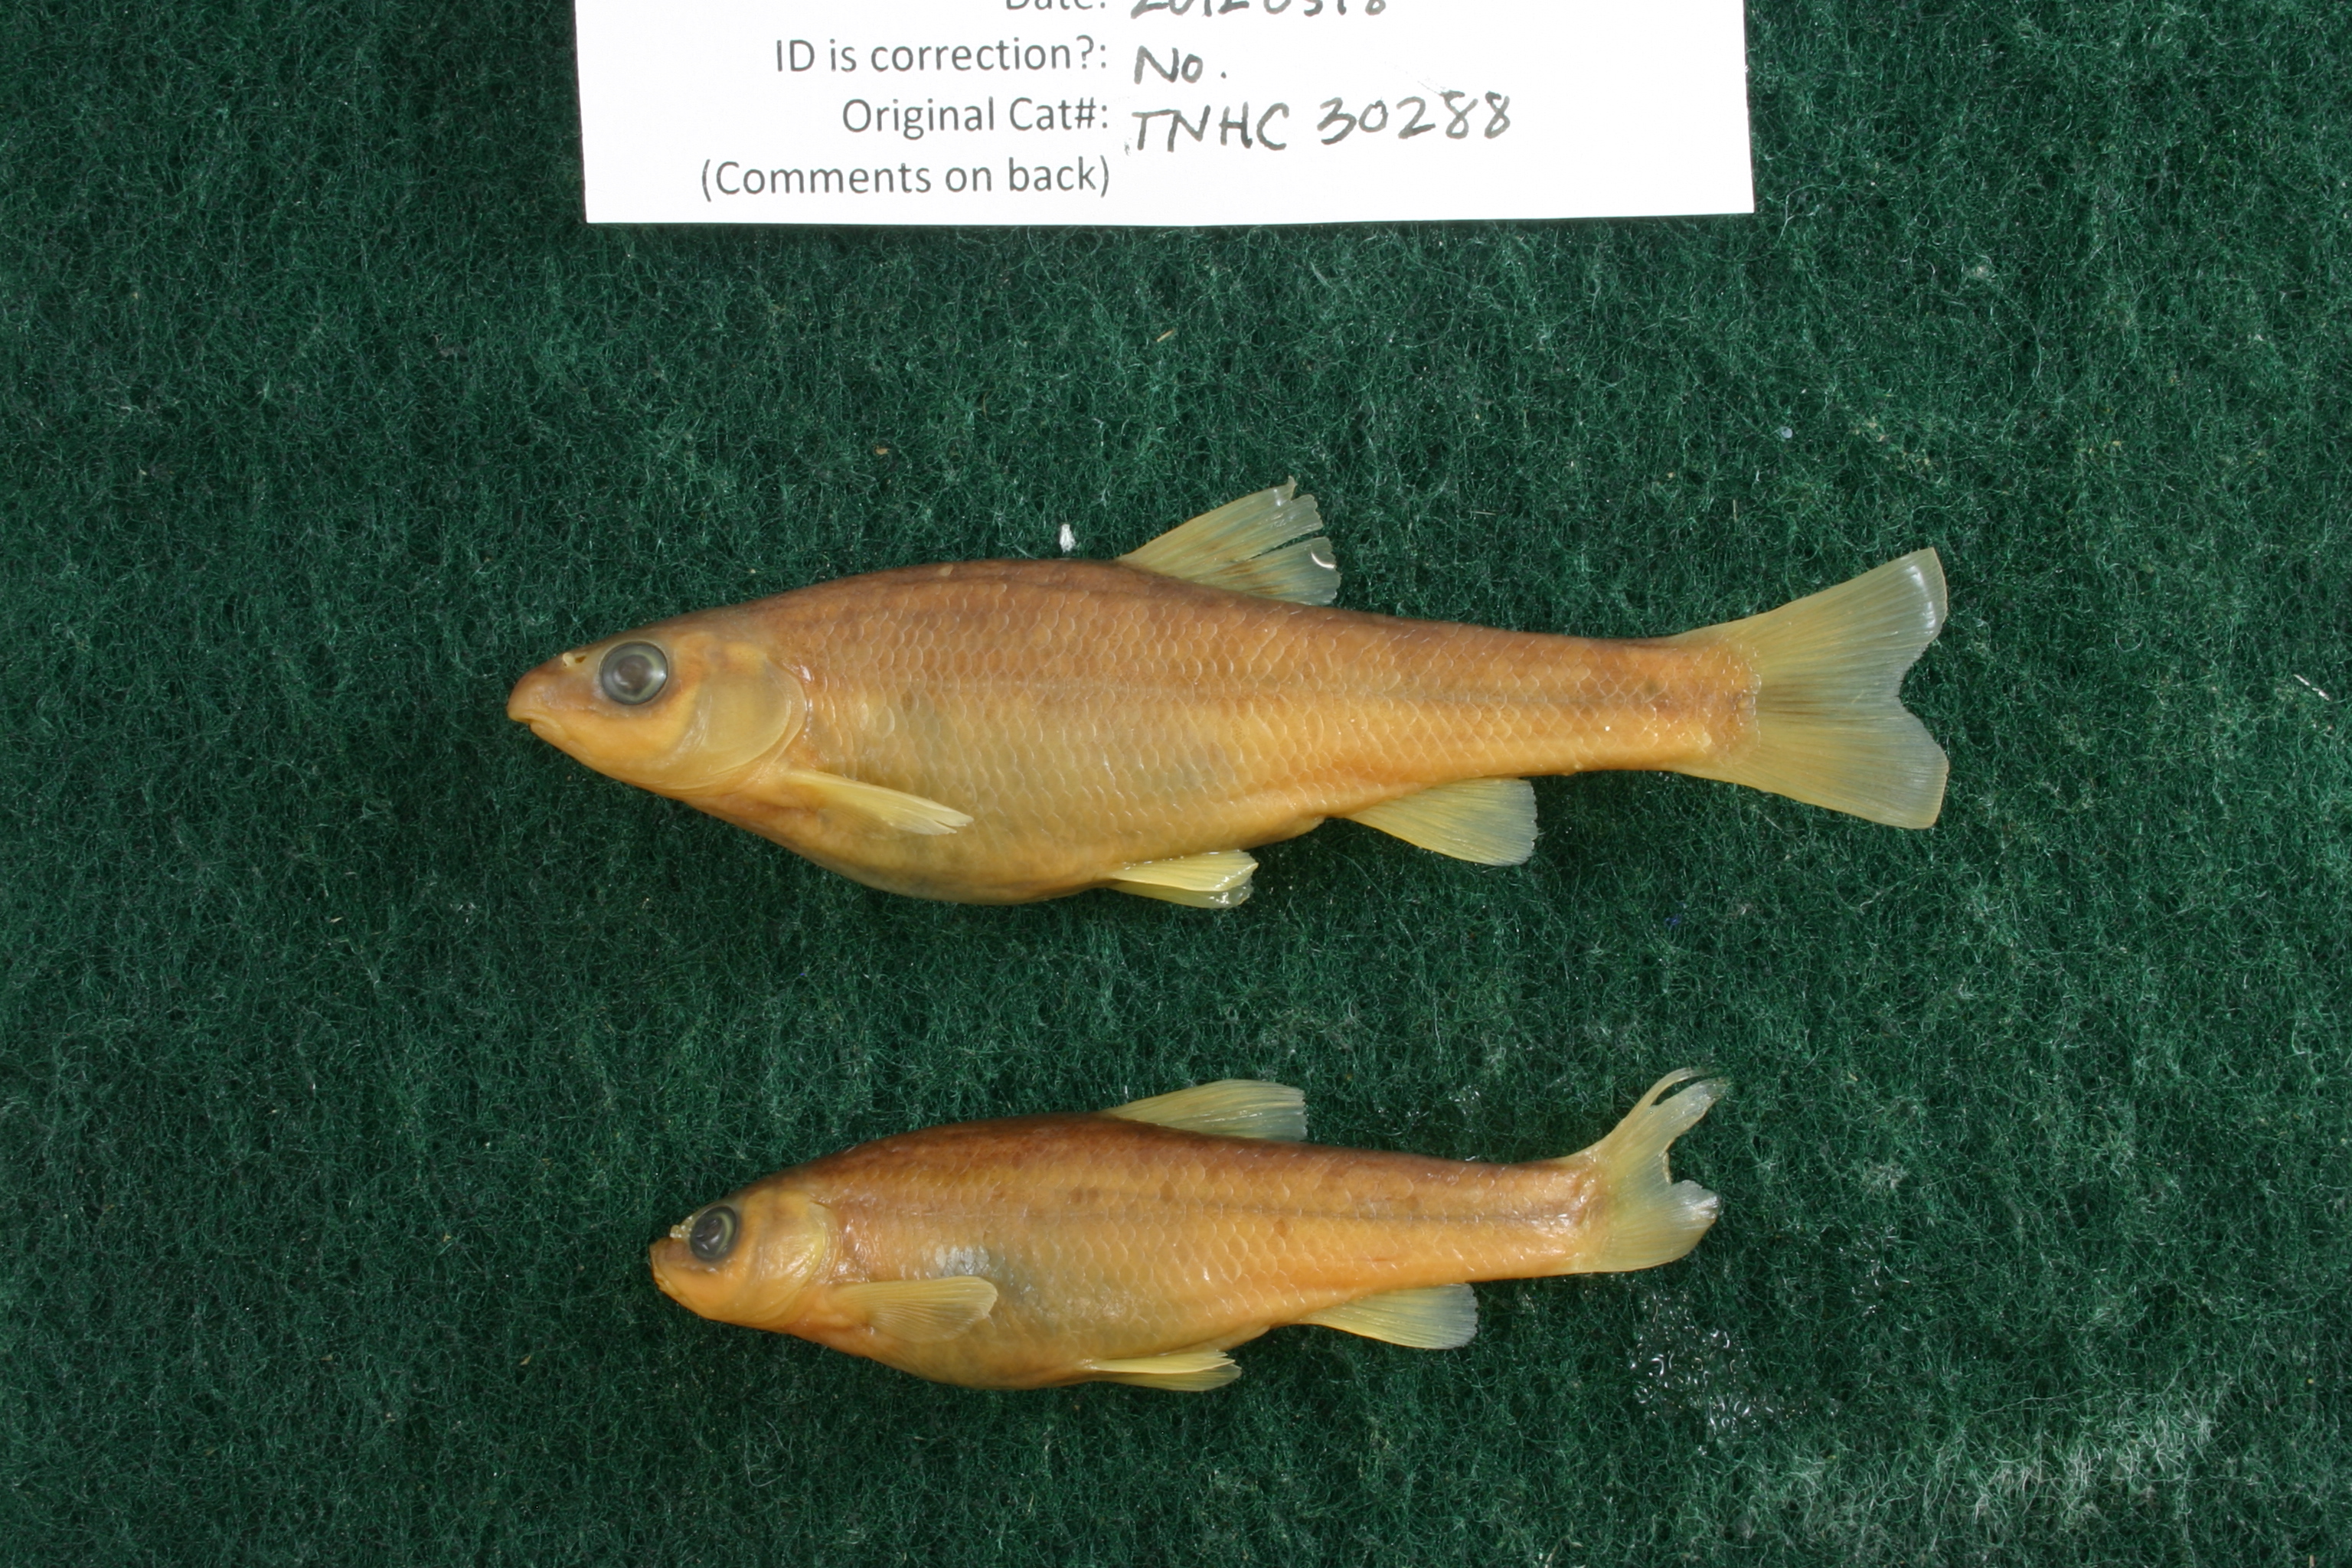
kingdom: Animalia
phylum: Chordata
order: Cypriniformes
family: Cyprinidae
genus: Campostoma
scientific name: Campostoma anomalum
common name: Central stoneroller
